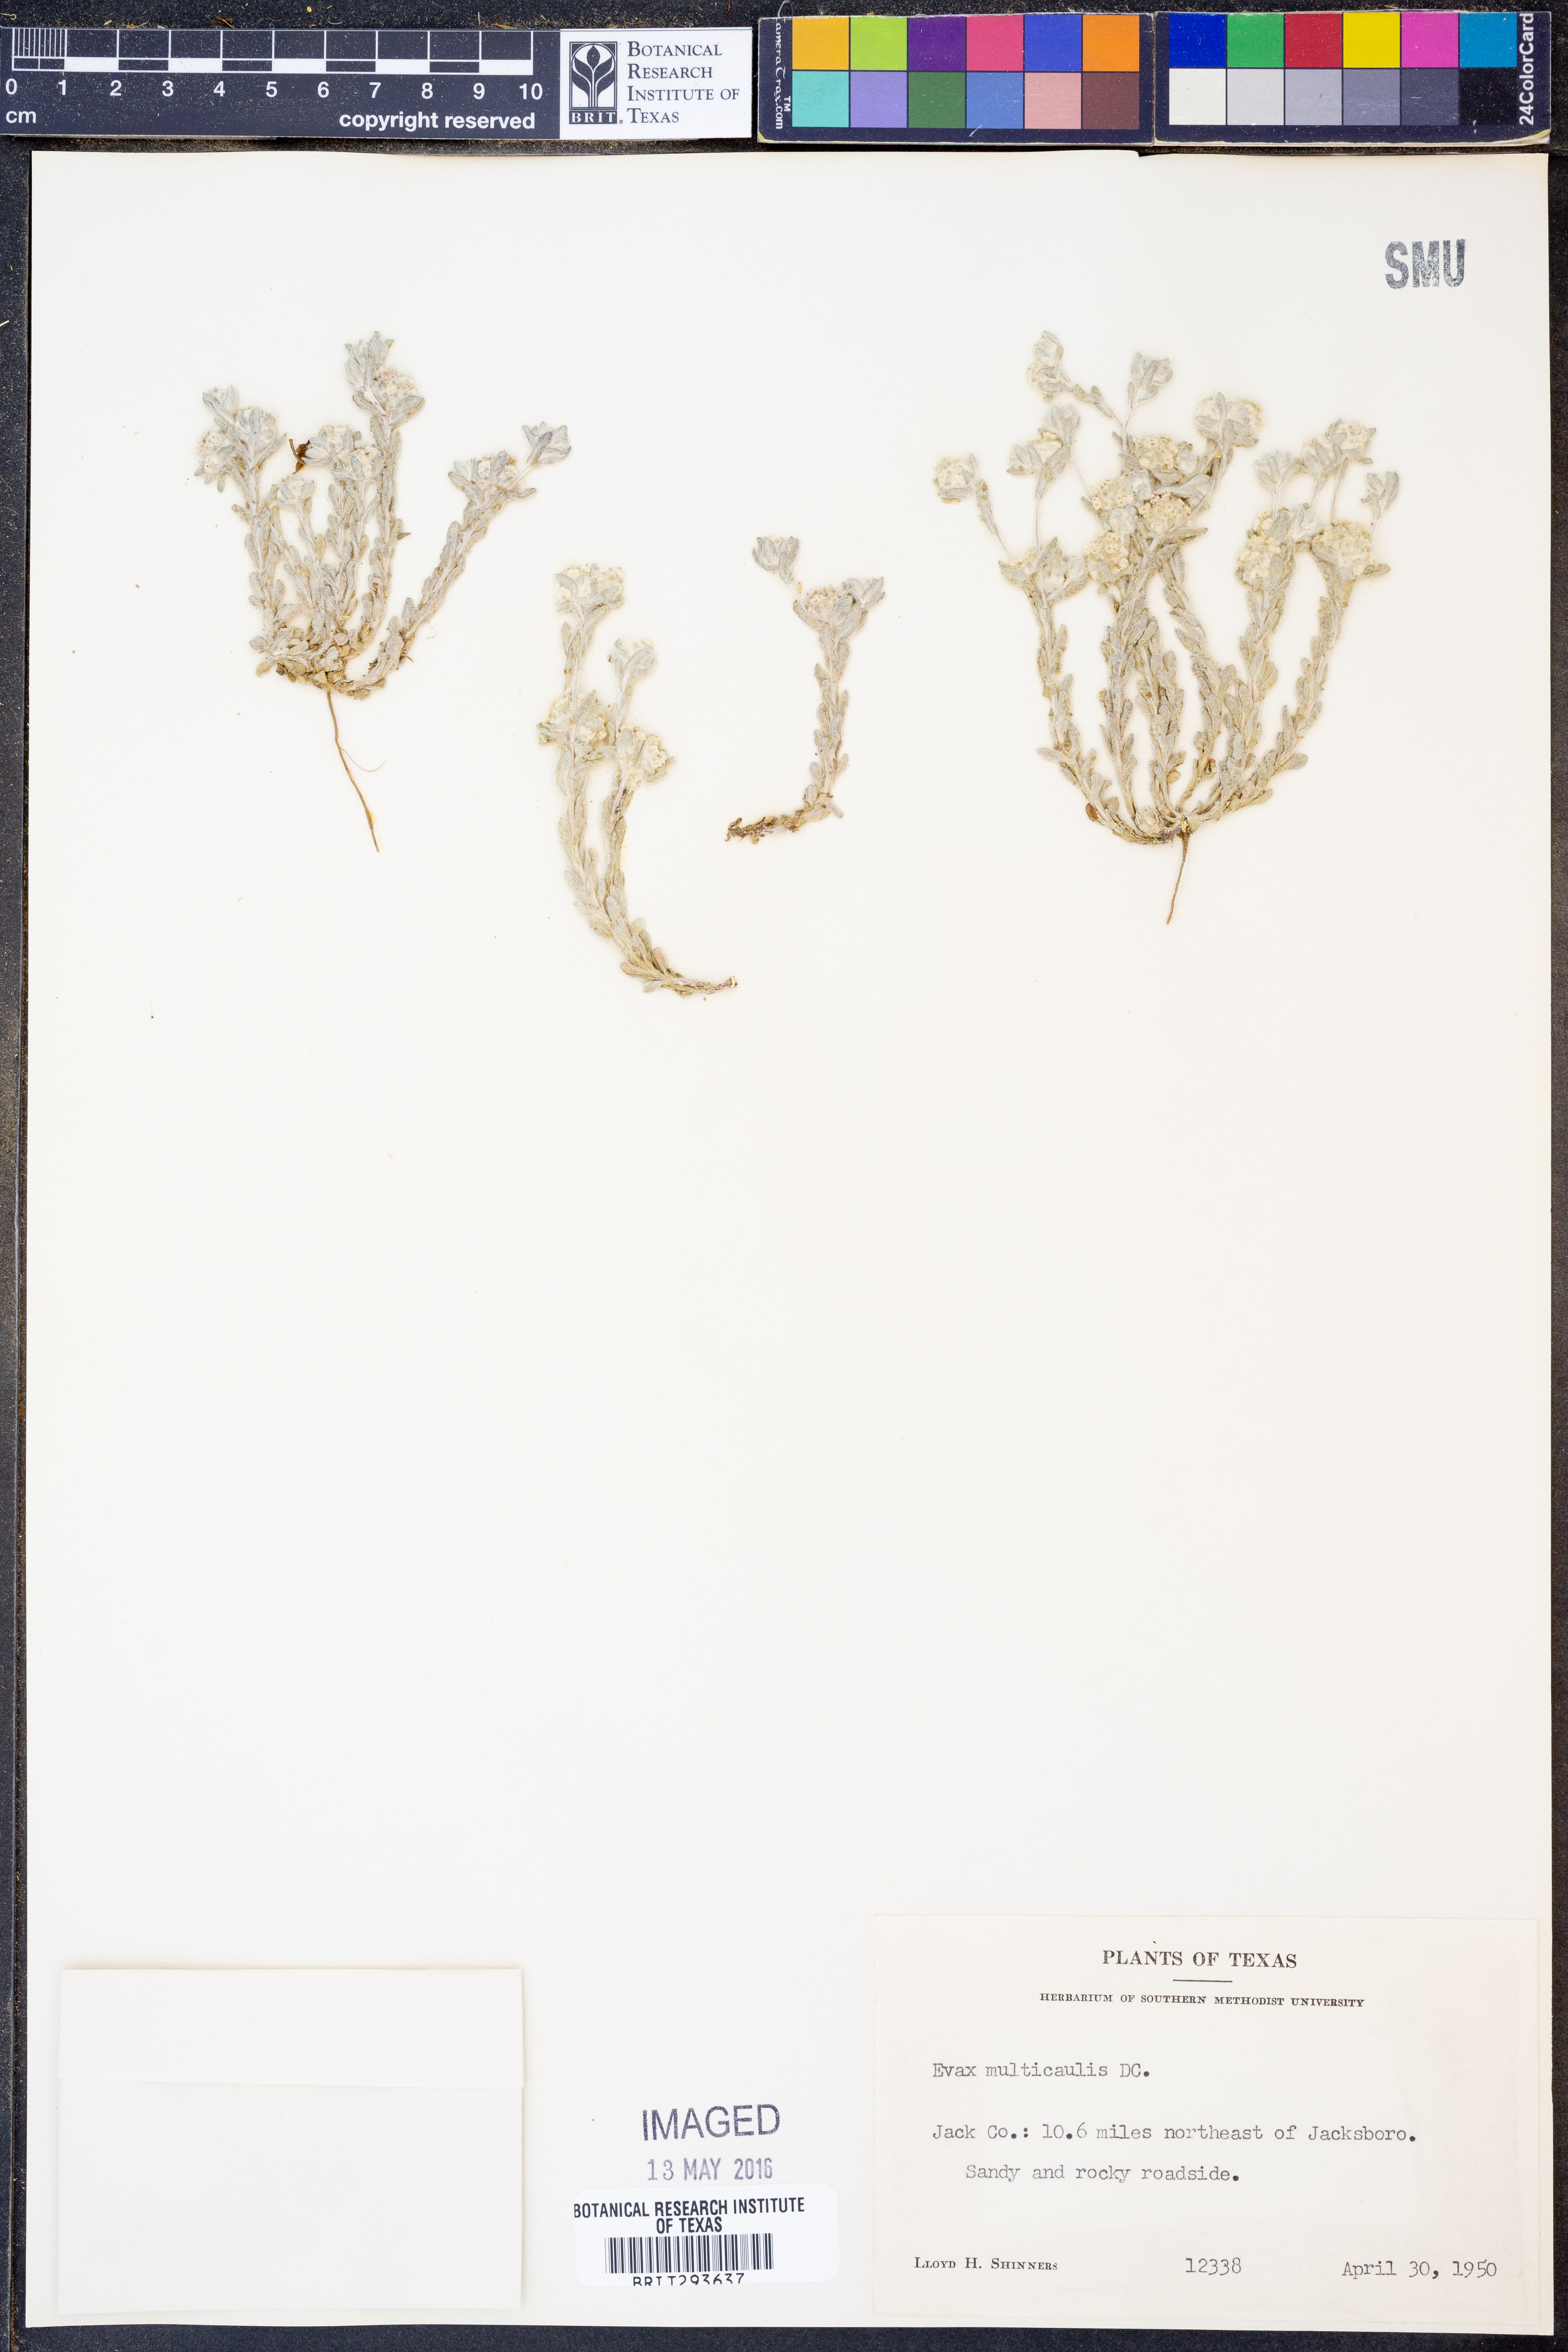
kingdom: Plantae
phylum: Tracheophyta
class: Magnoliopsida
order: Asterales
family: Asteraceae
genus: Diaperia
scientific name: Diaperia verna
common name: Many-stem rabbit-tobacco
